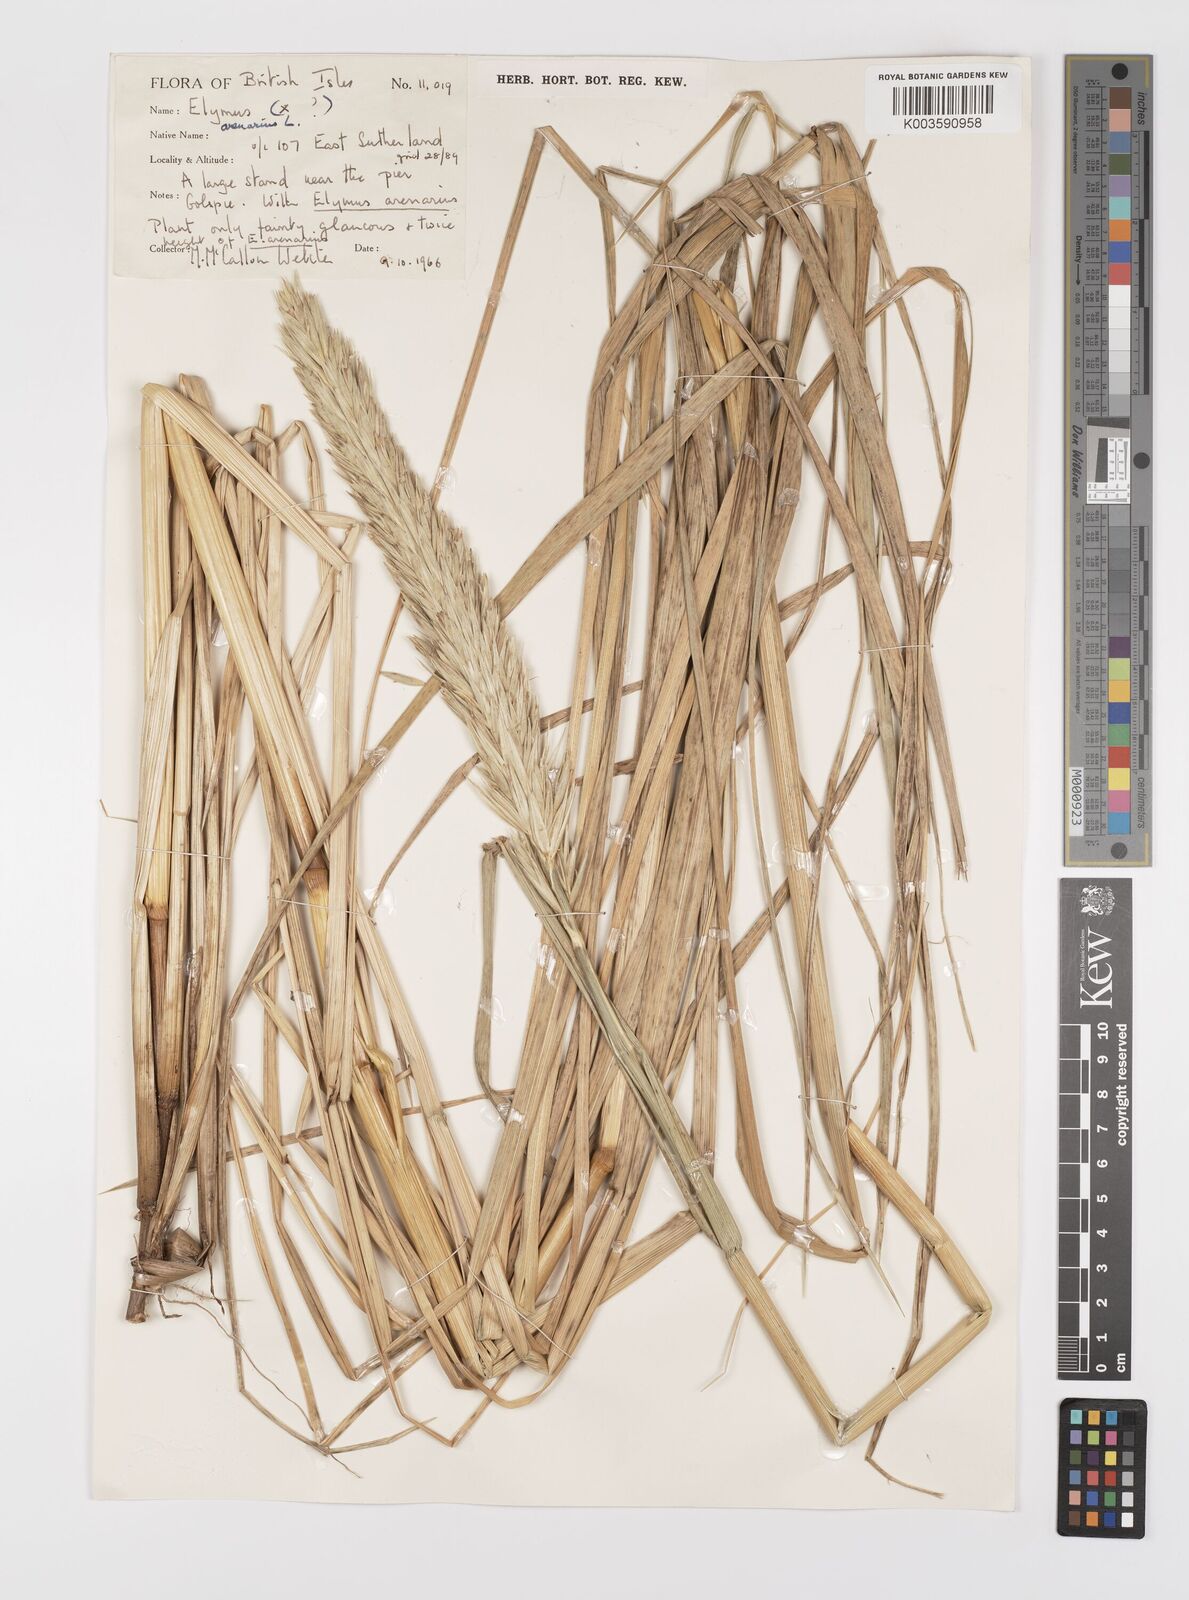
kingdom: Plantae
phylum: Tracheophyta
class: Liliopsida
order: Poales
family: Poaceae
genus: Leymus
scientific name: Leymus arenarius
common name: Lyme-grass
